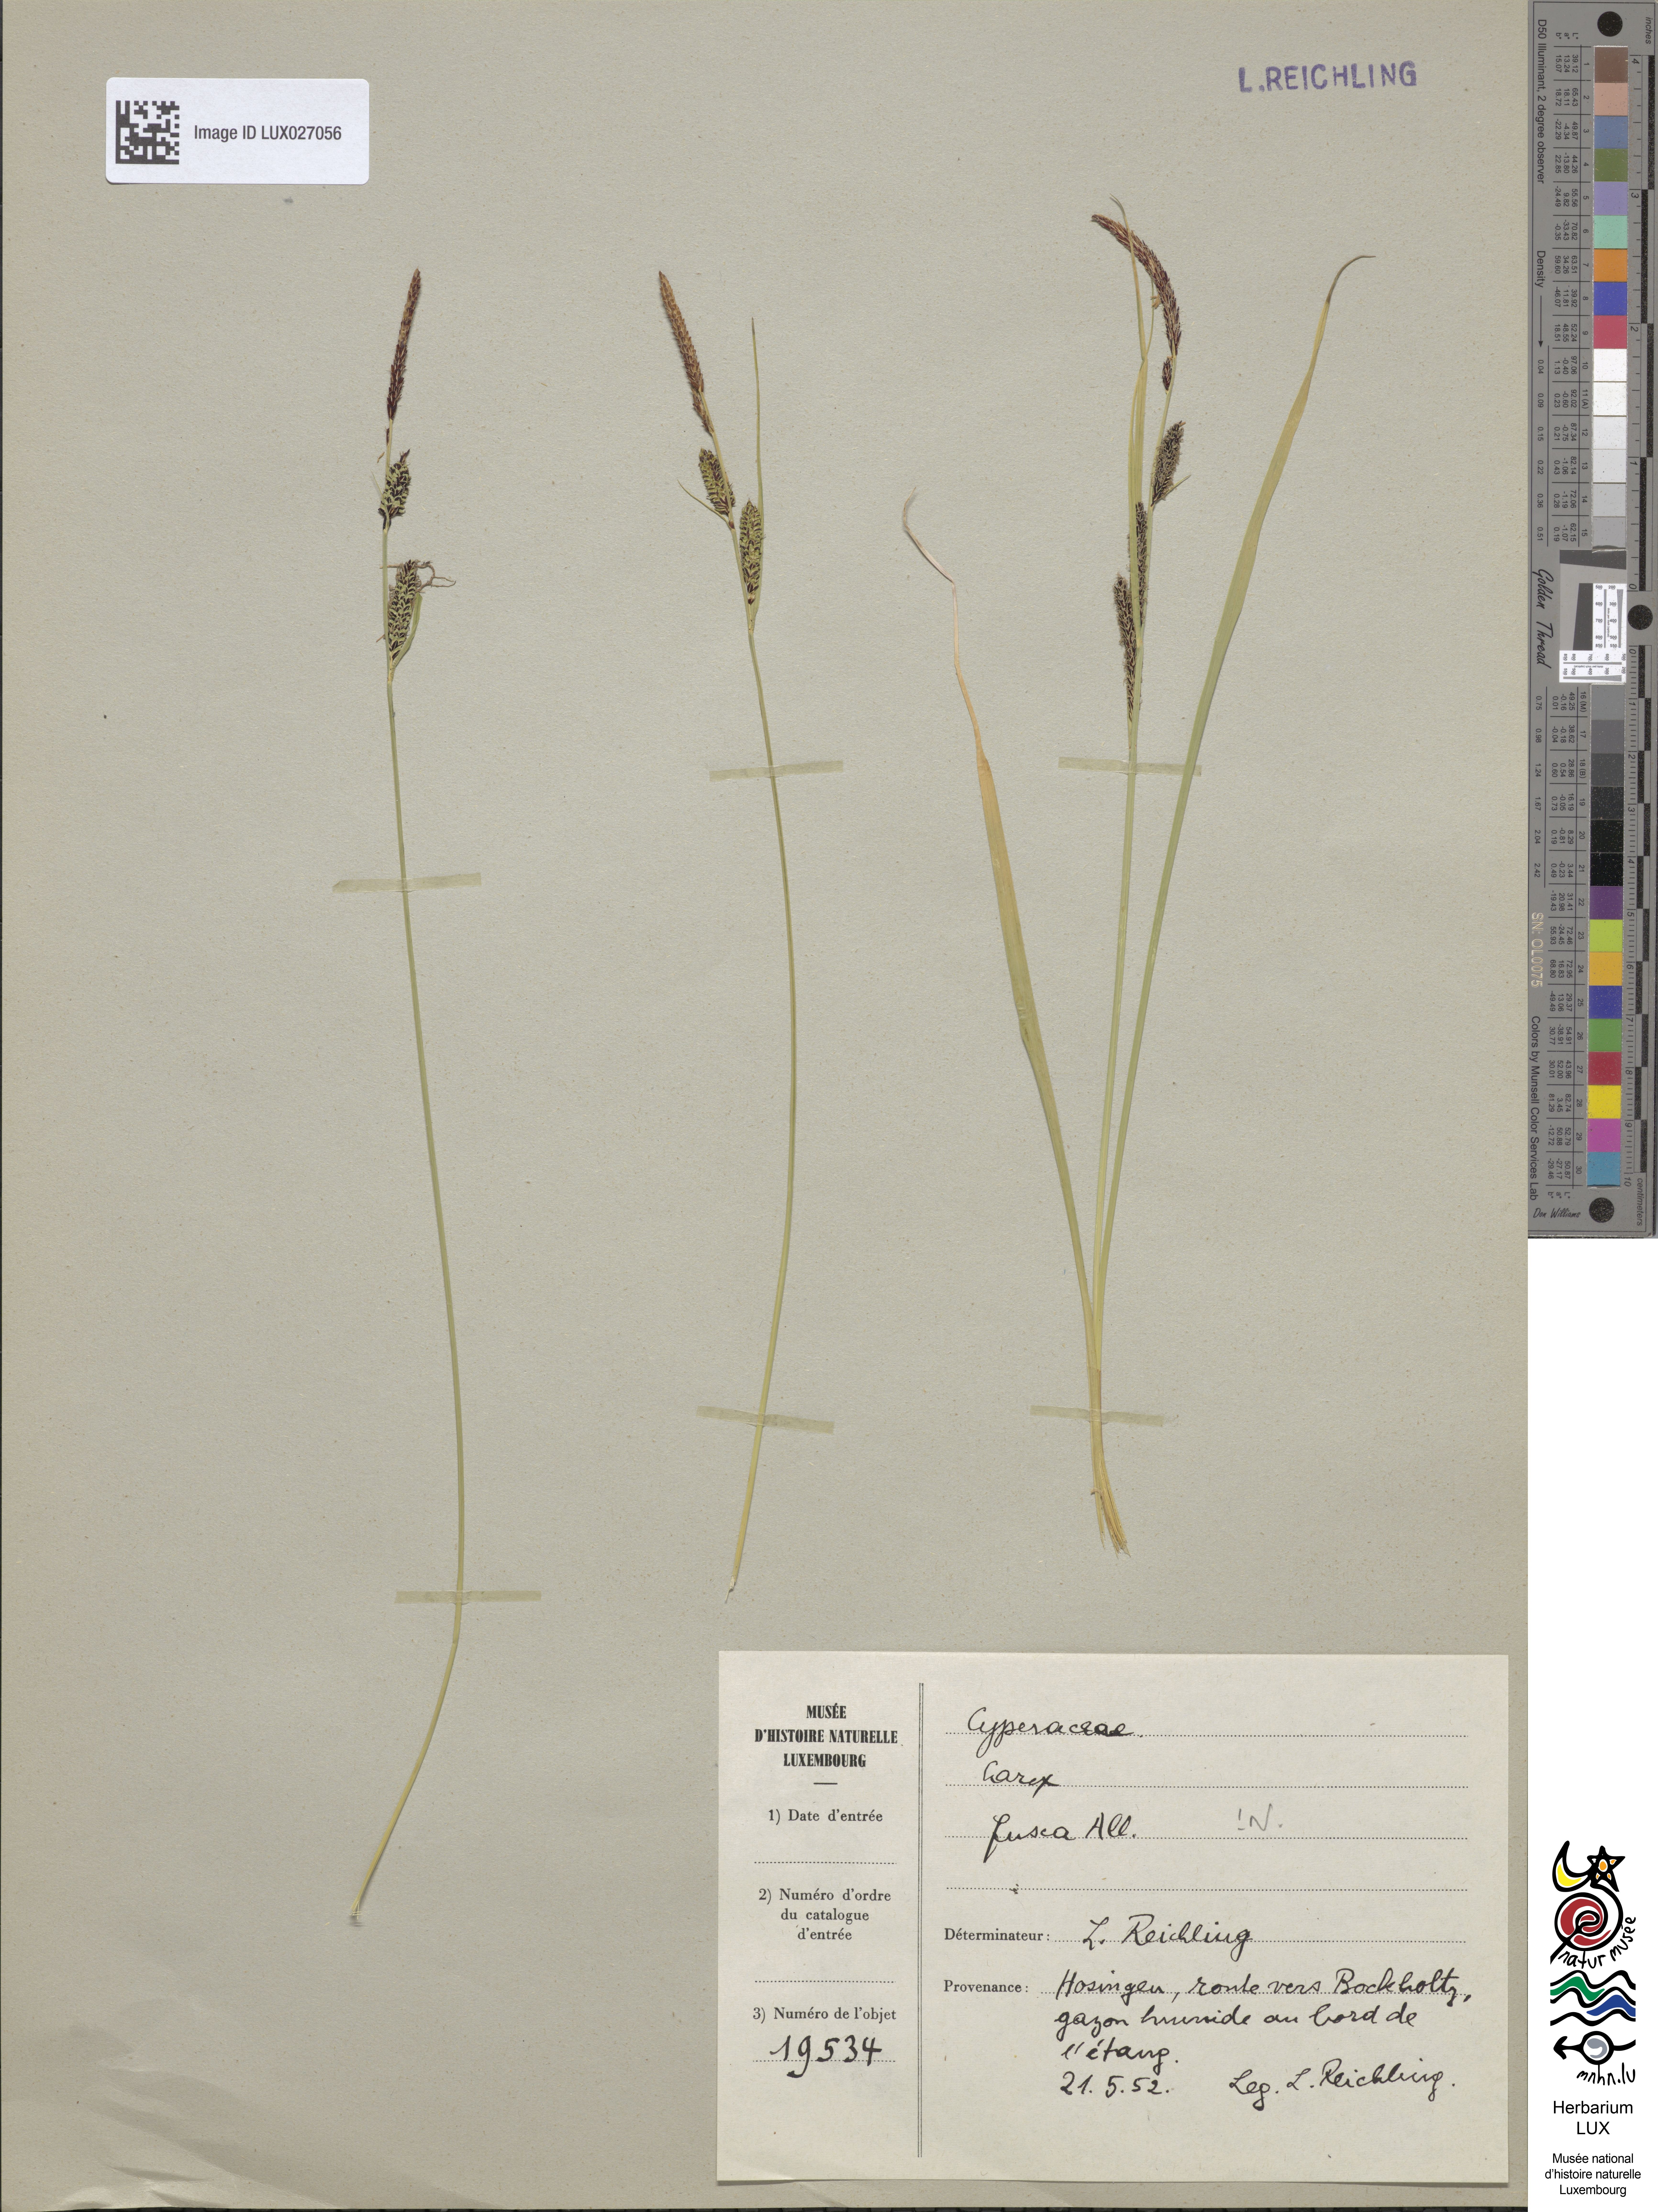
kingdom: Plantae
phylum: Tracheophyta
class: Liliopsida
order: Poales
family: Cyperaceae
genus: Carex
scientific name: Carex nigra
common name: Common sedge
